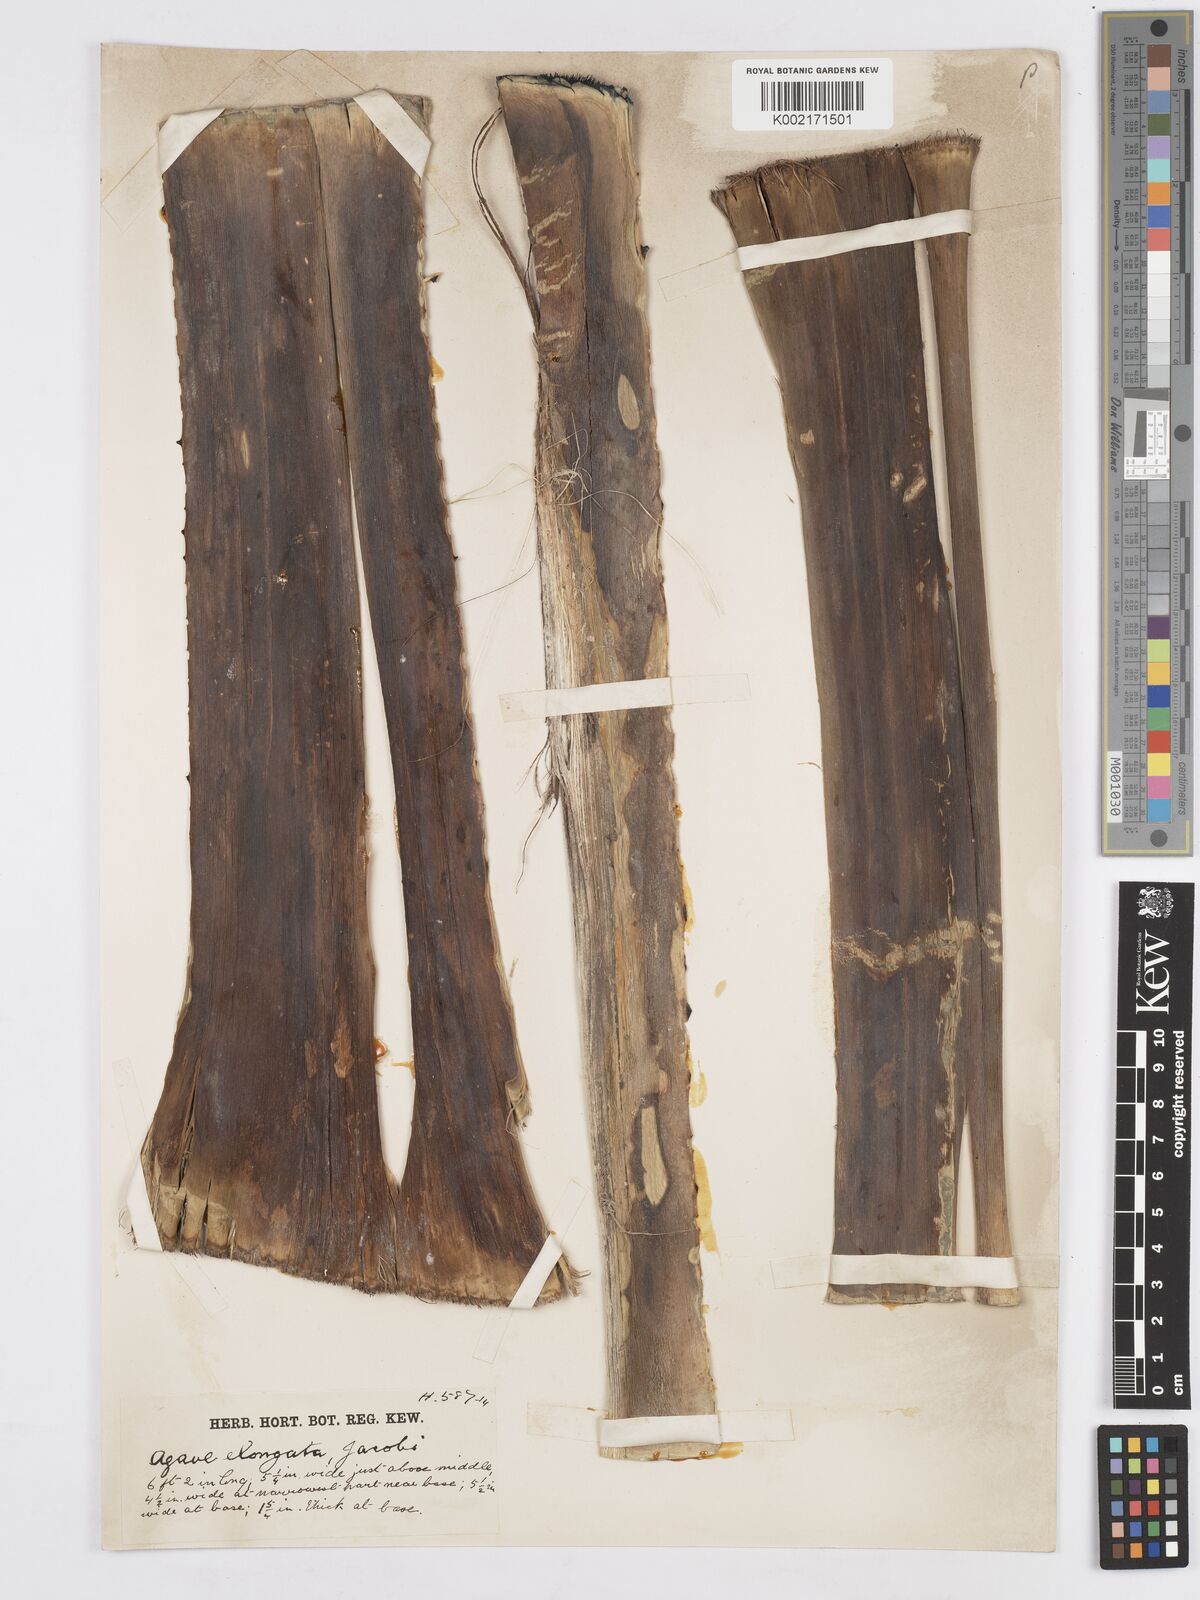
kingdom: Plantae
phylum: Tracheophyta
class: Liliopsida
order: Asparagales
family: Asparagaceae
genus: Agave
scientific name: Agave angustifolia
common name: Mescal agave
